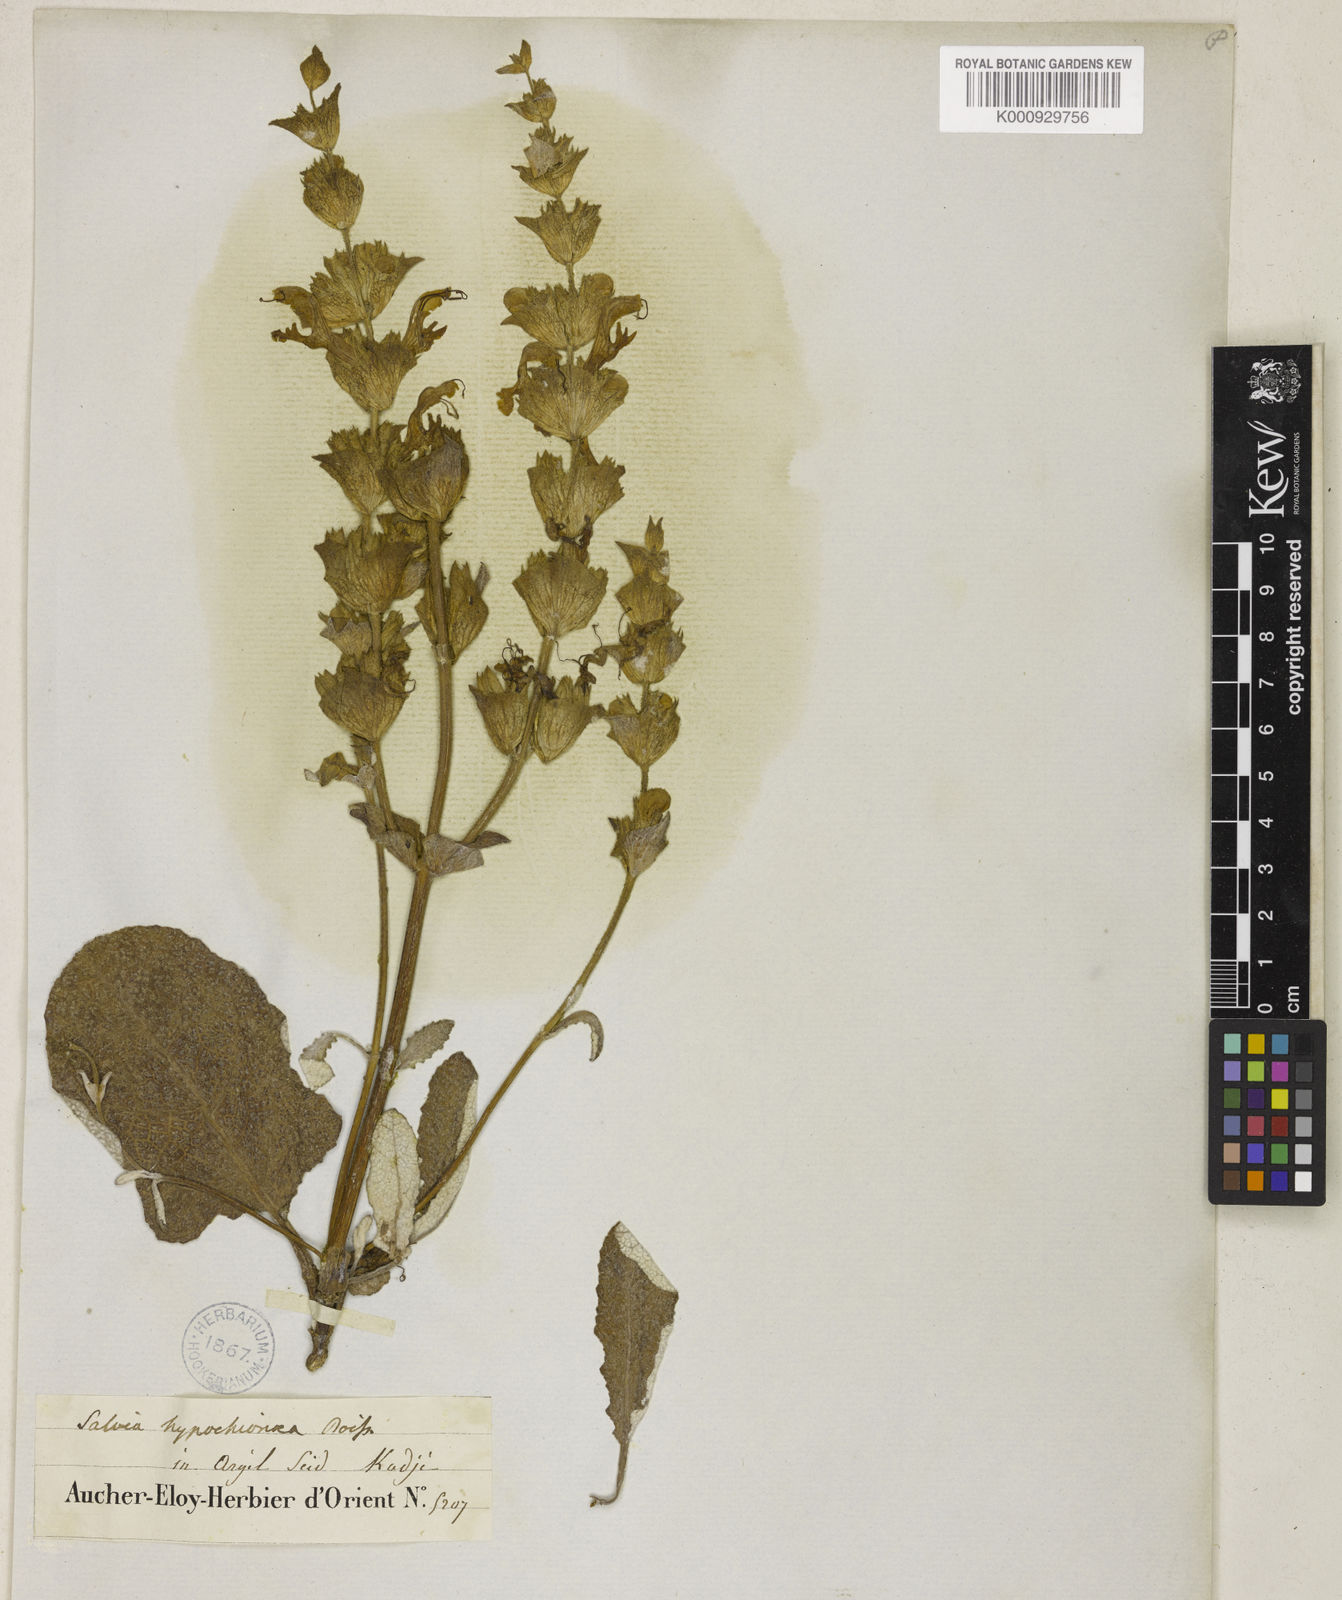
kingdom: Plantae
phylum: Tracheophyta
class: Magnoliopsida
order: Lamiales
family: Lamiaceae
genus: Salvia
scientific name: Salvia hypochionaea
